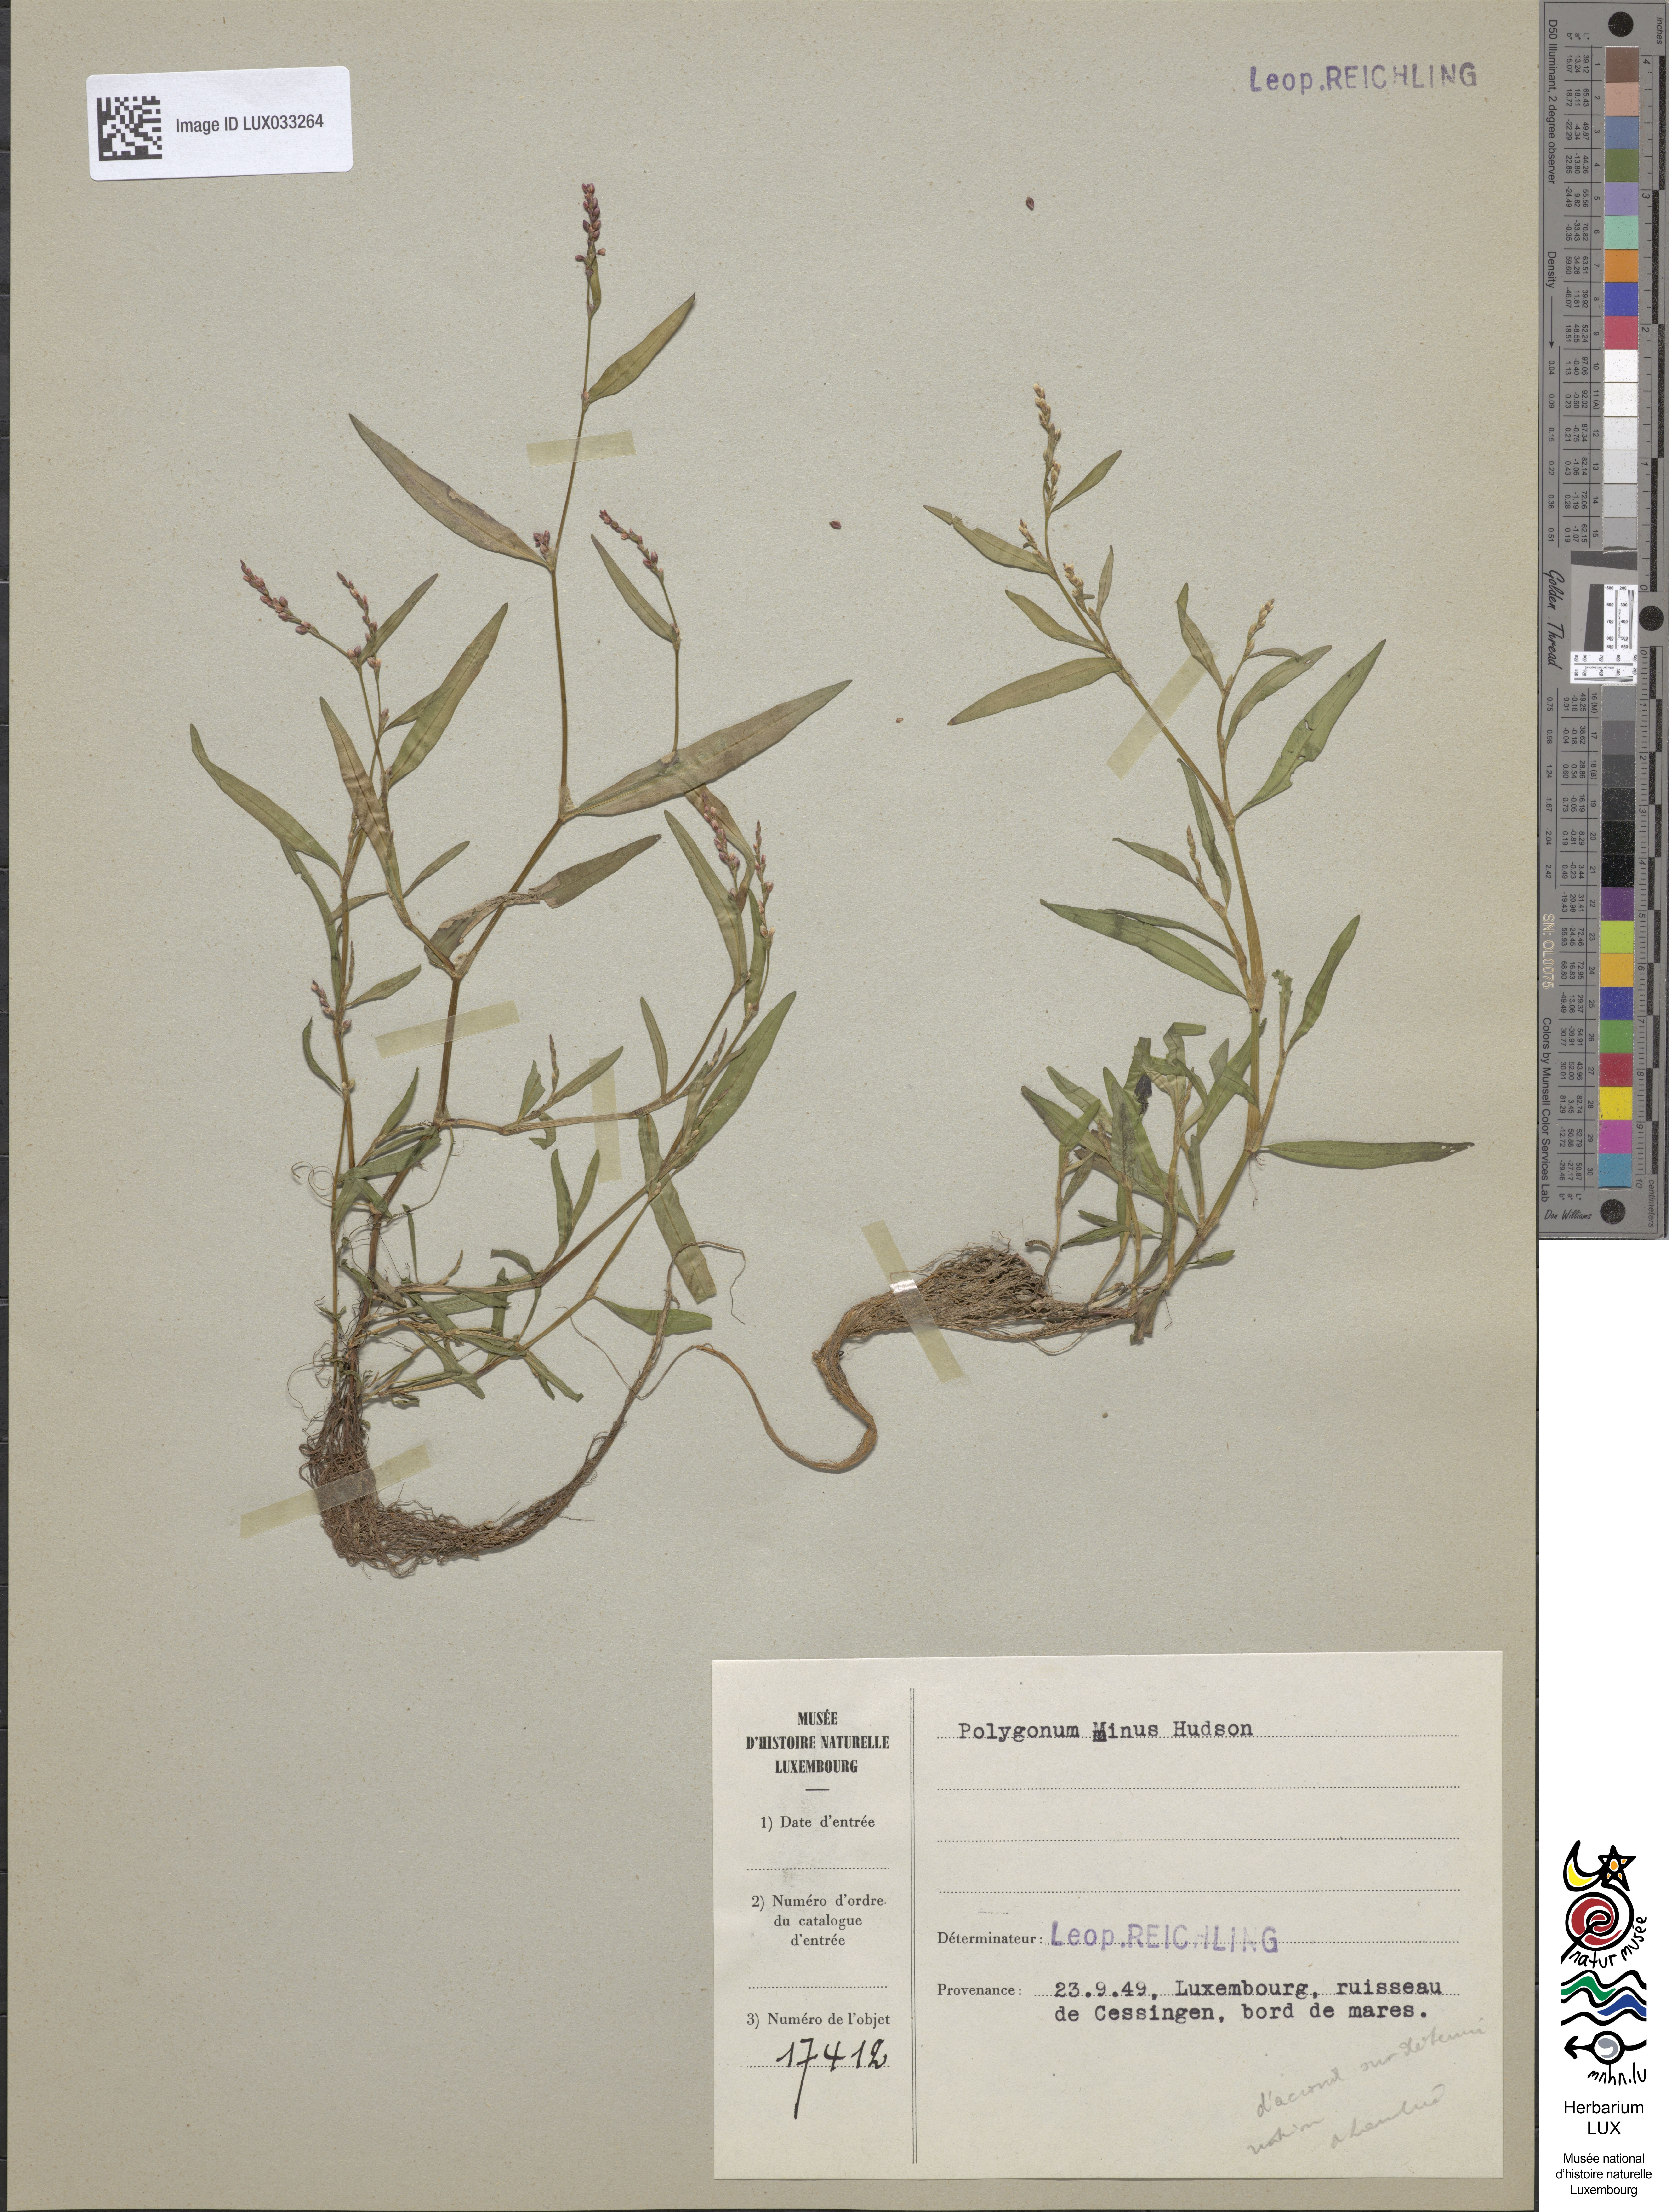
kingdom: Plantae
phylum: Tracheophyta
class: Magnoliopsida
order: Caryophyllales
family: Polygonaceae
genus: Persicaria
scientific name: Persicaria minor
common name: Small water-pepper
